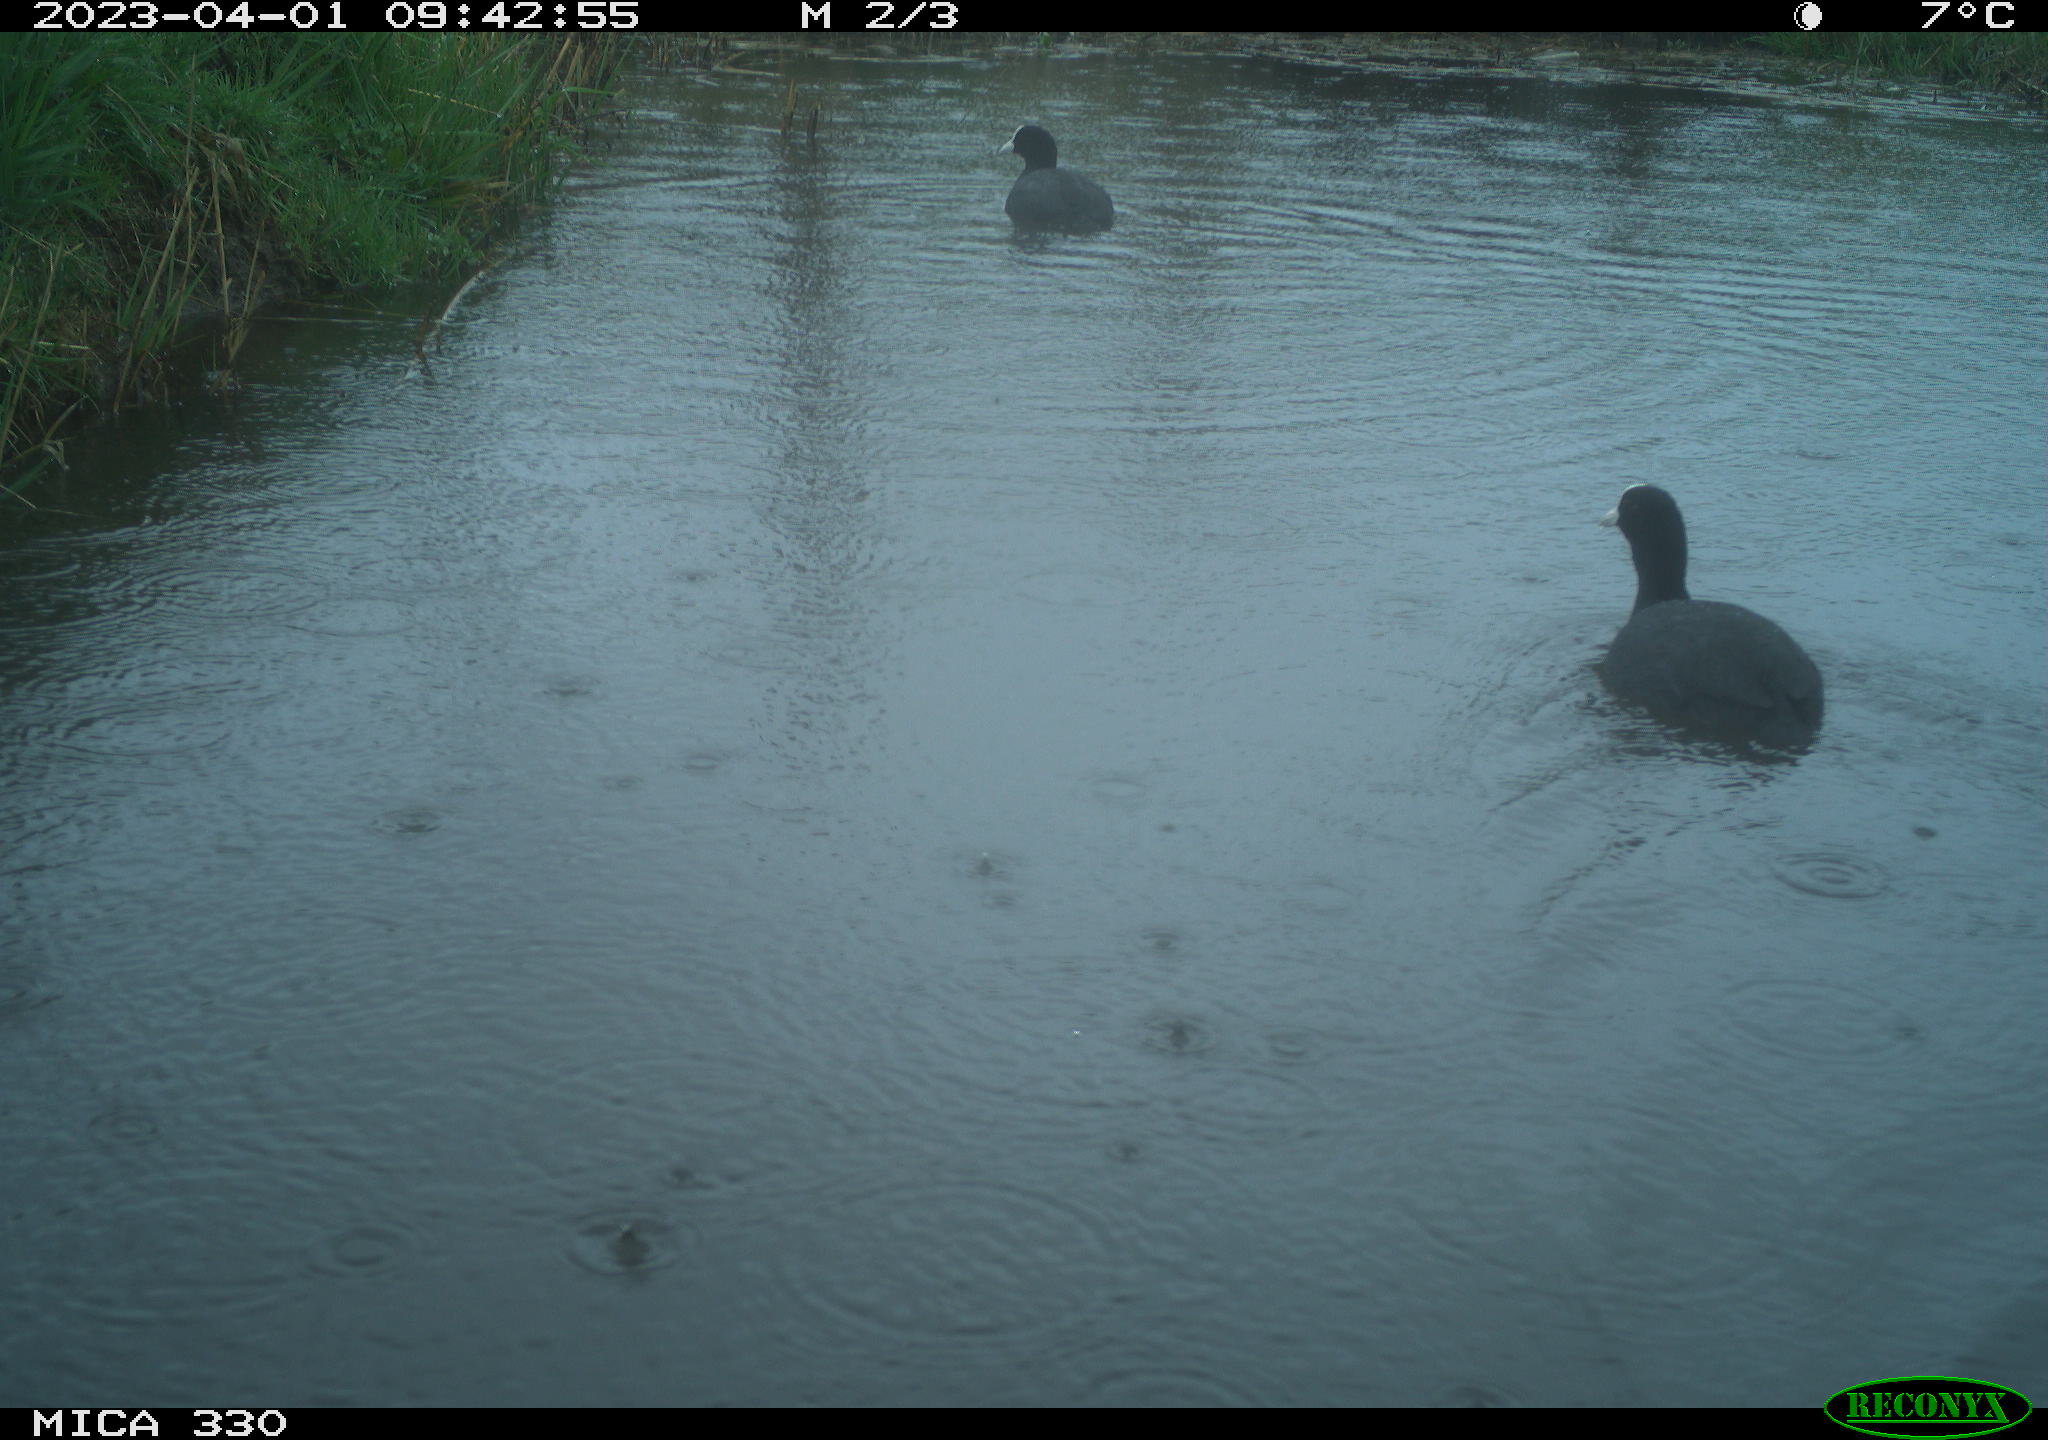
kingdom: Animalia
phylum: Chordata
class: Aves
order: Gruiformes
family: Rallidae
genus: Fulica
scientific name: Fulica atra
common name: Eurasian coot
